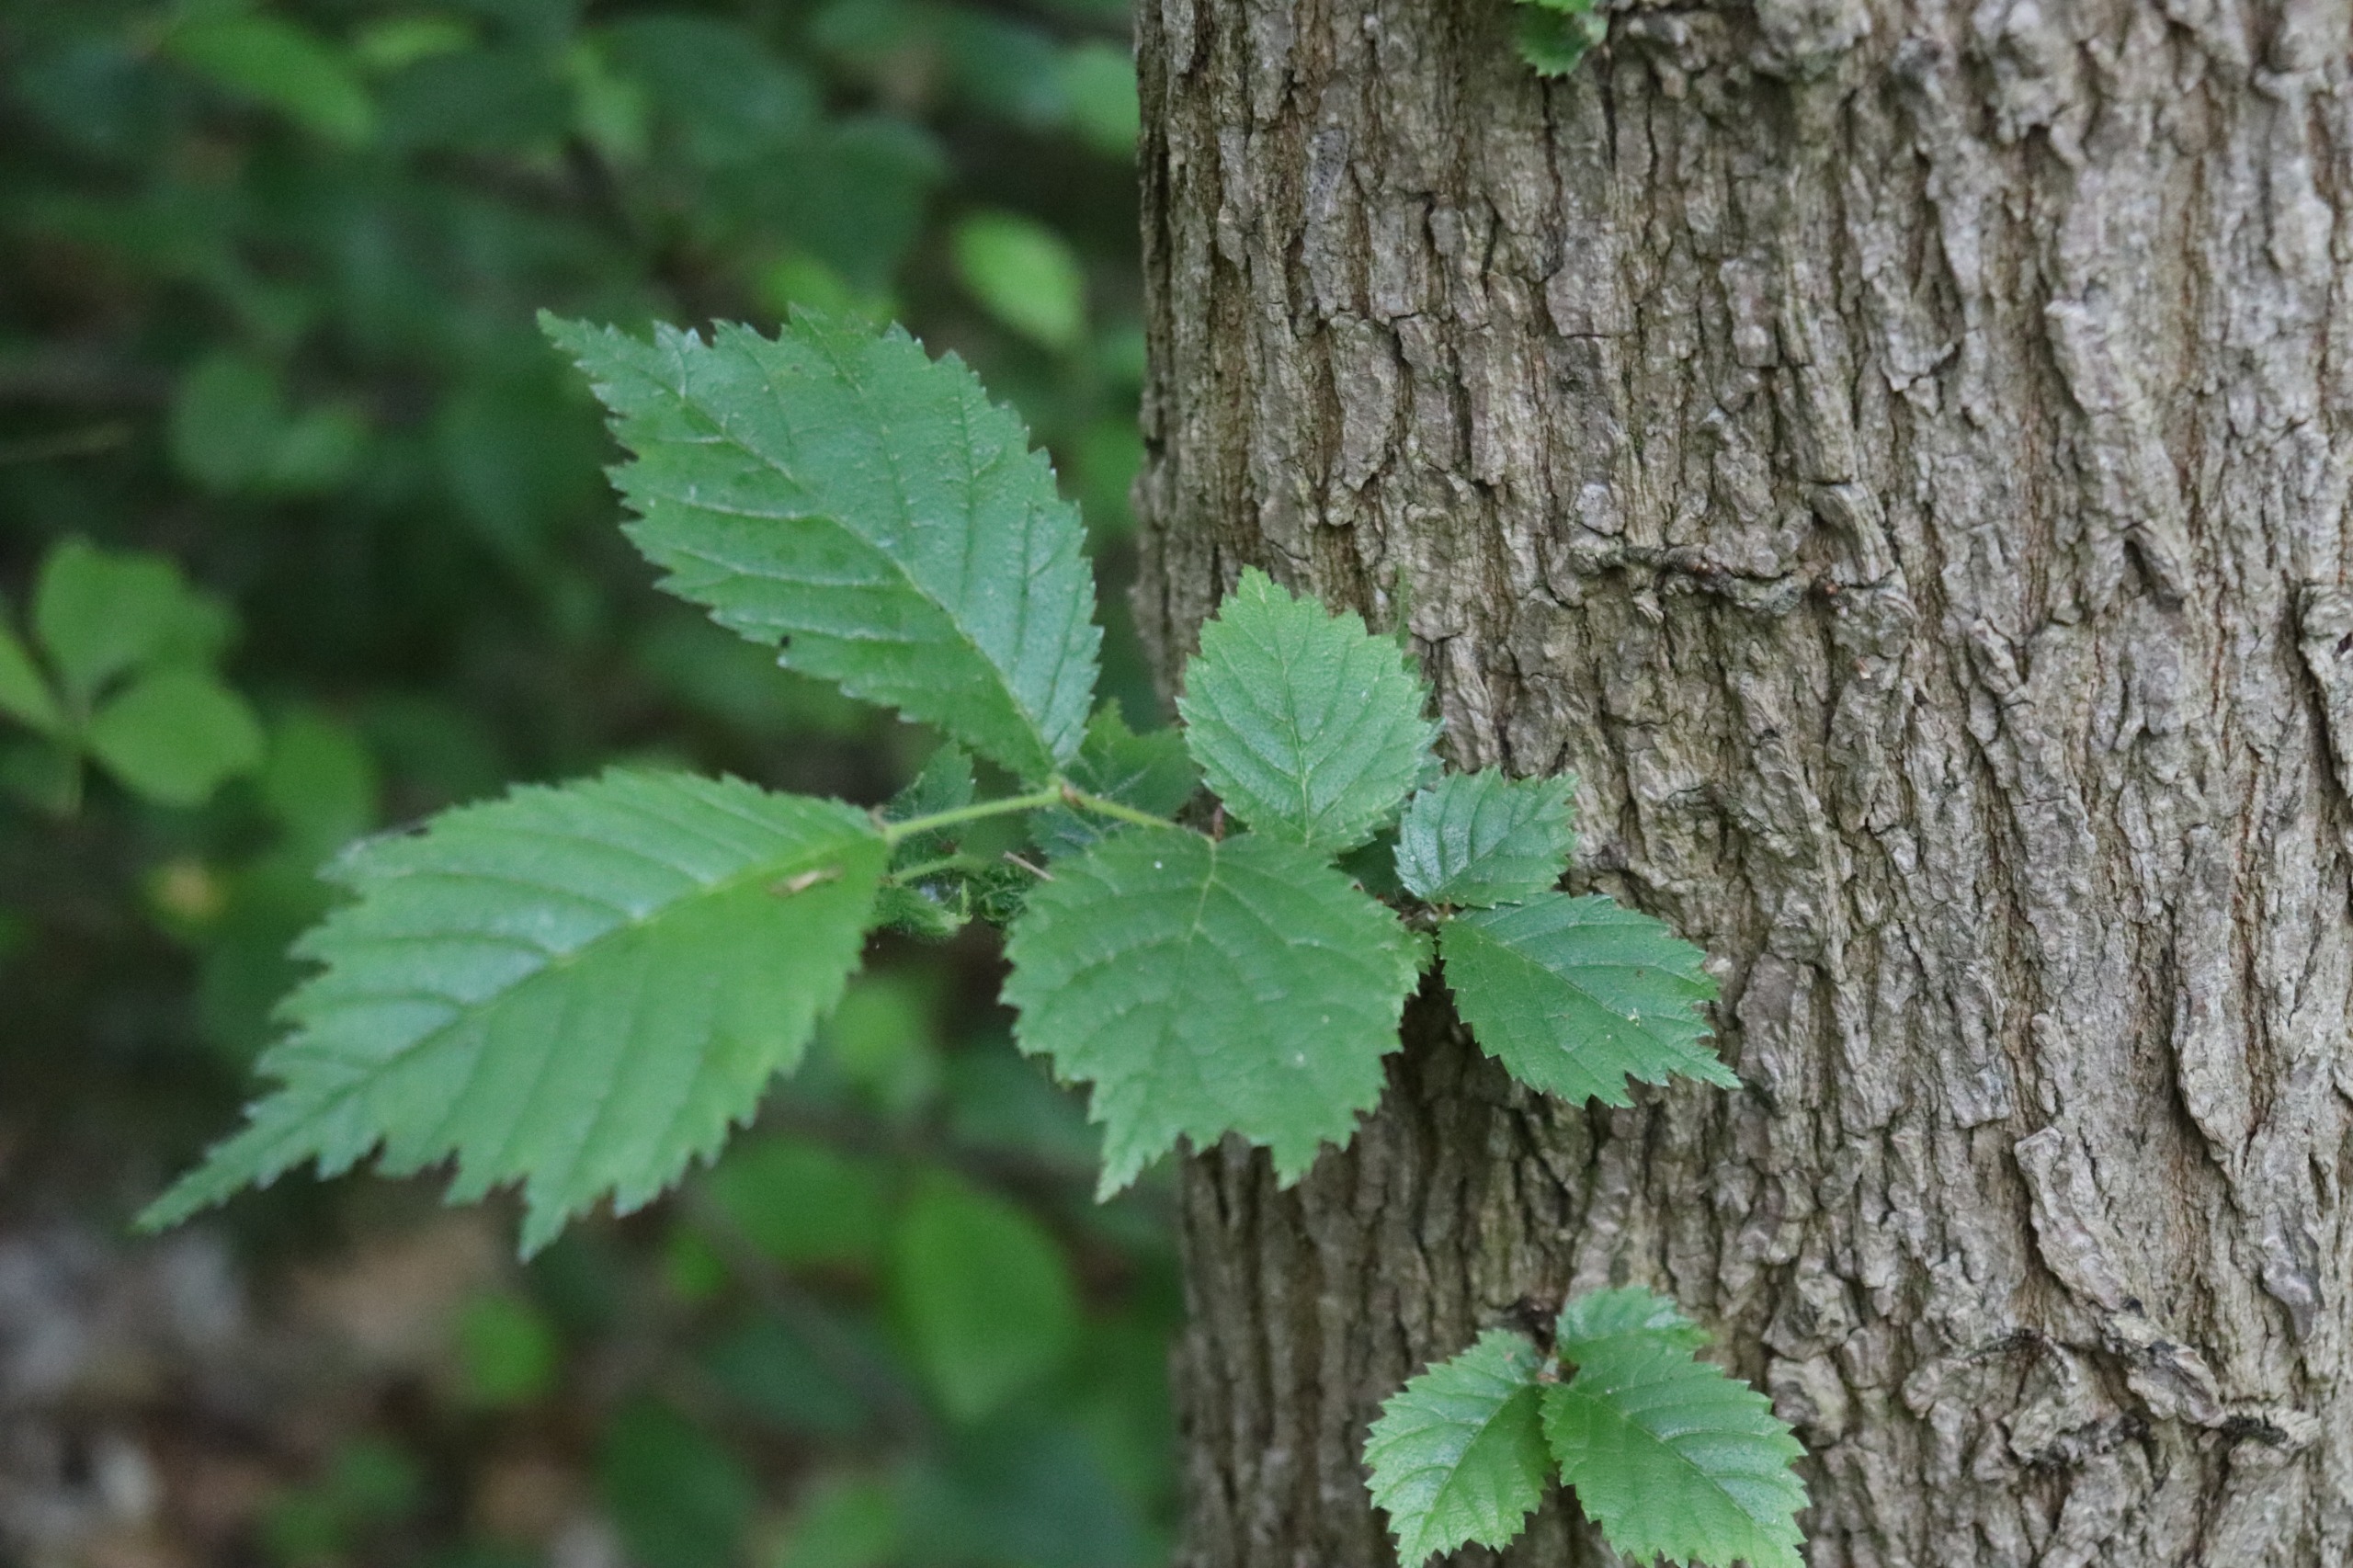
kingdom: Plantae
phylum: Tracheophyta
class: Magnoliopsida
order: Rosales
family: Ulmaceae
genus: Ulmus
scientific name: Ulmus glabra
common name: Skov-elm/storbladet elm
